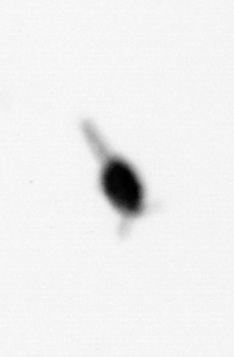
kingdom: Animalia
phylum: Arthropoda
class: Copepoda
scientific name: Copepoda
